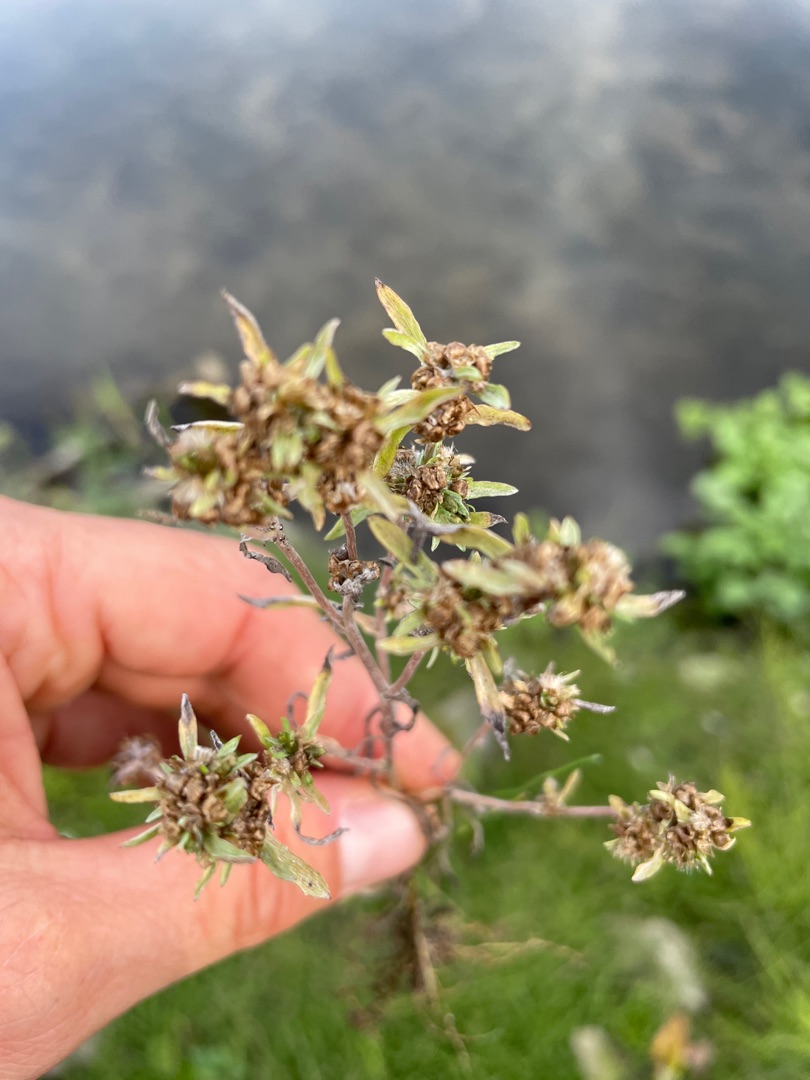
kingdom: Plantae
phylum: Tracheophyta
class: Magnoliopsida
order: Asterales
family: Asteraceae
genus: Gnaphalium
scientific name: Gnaphalium uliginosum
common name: Sump-evighedsblomst
